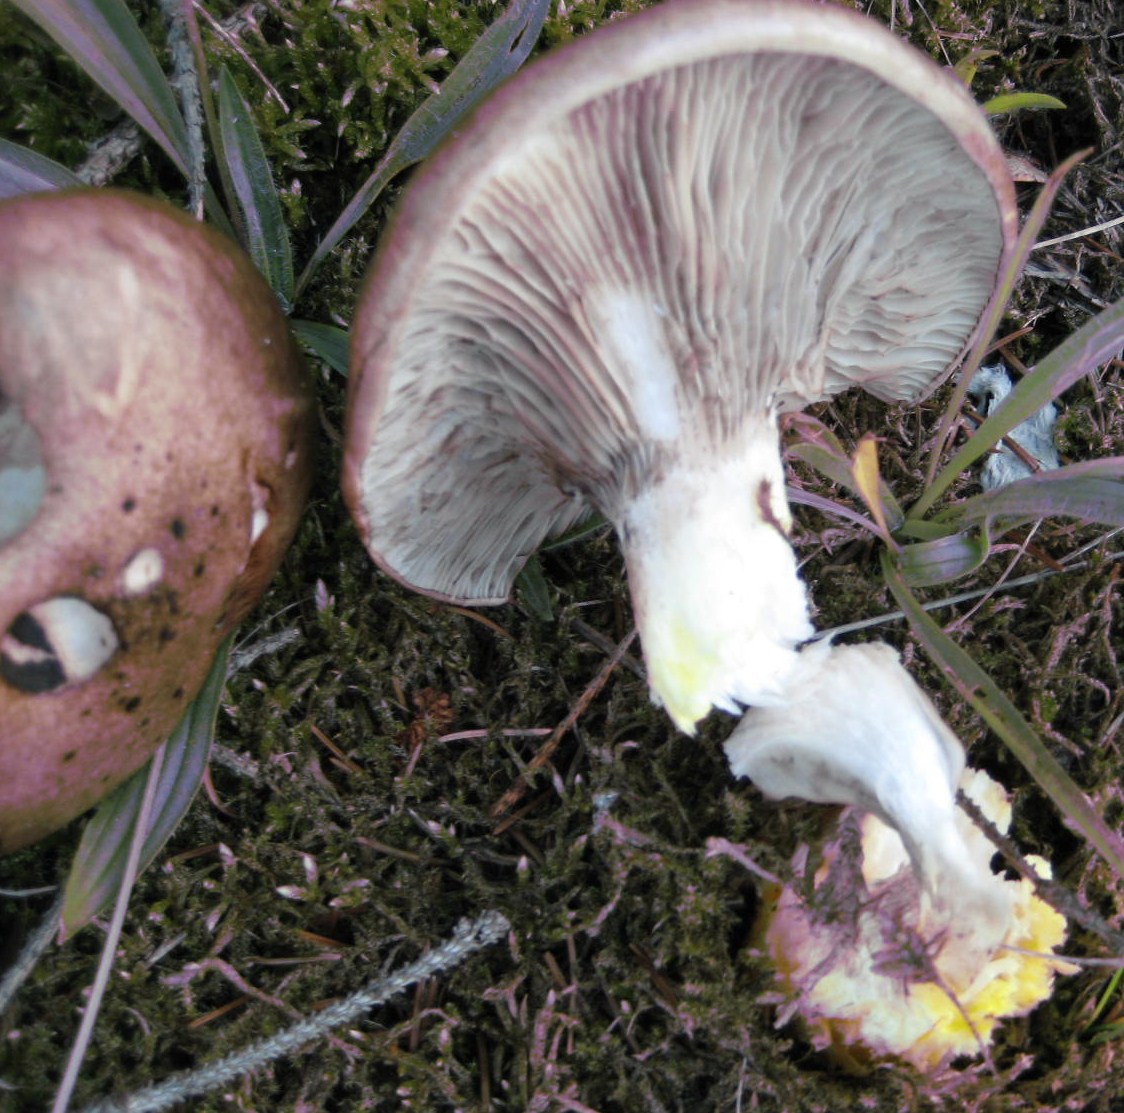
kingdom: Fungi
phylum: Basidiomycota
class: Agaricomycetes
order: Boletales
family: Gomphidiaceae
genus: Gomphidius
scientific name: Gomphidius glutinosus
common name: grå slimslør
